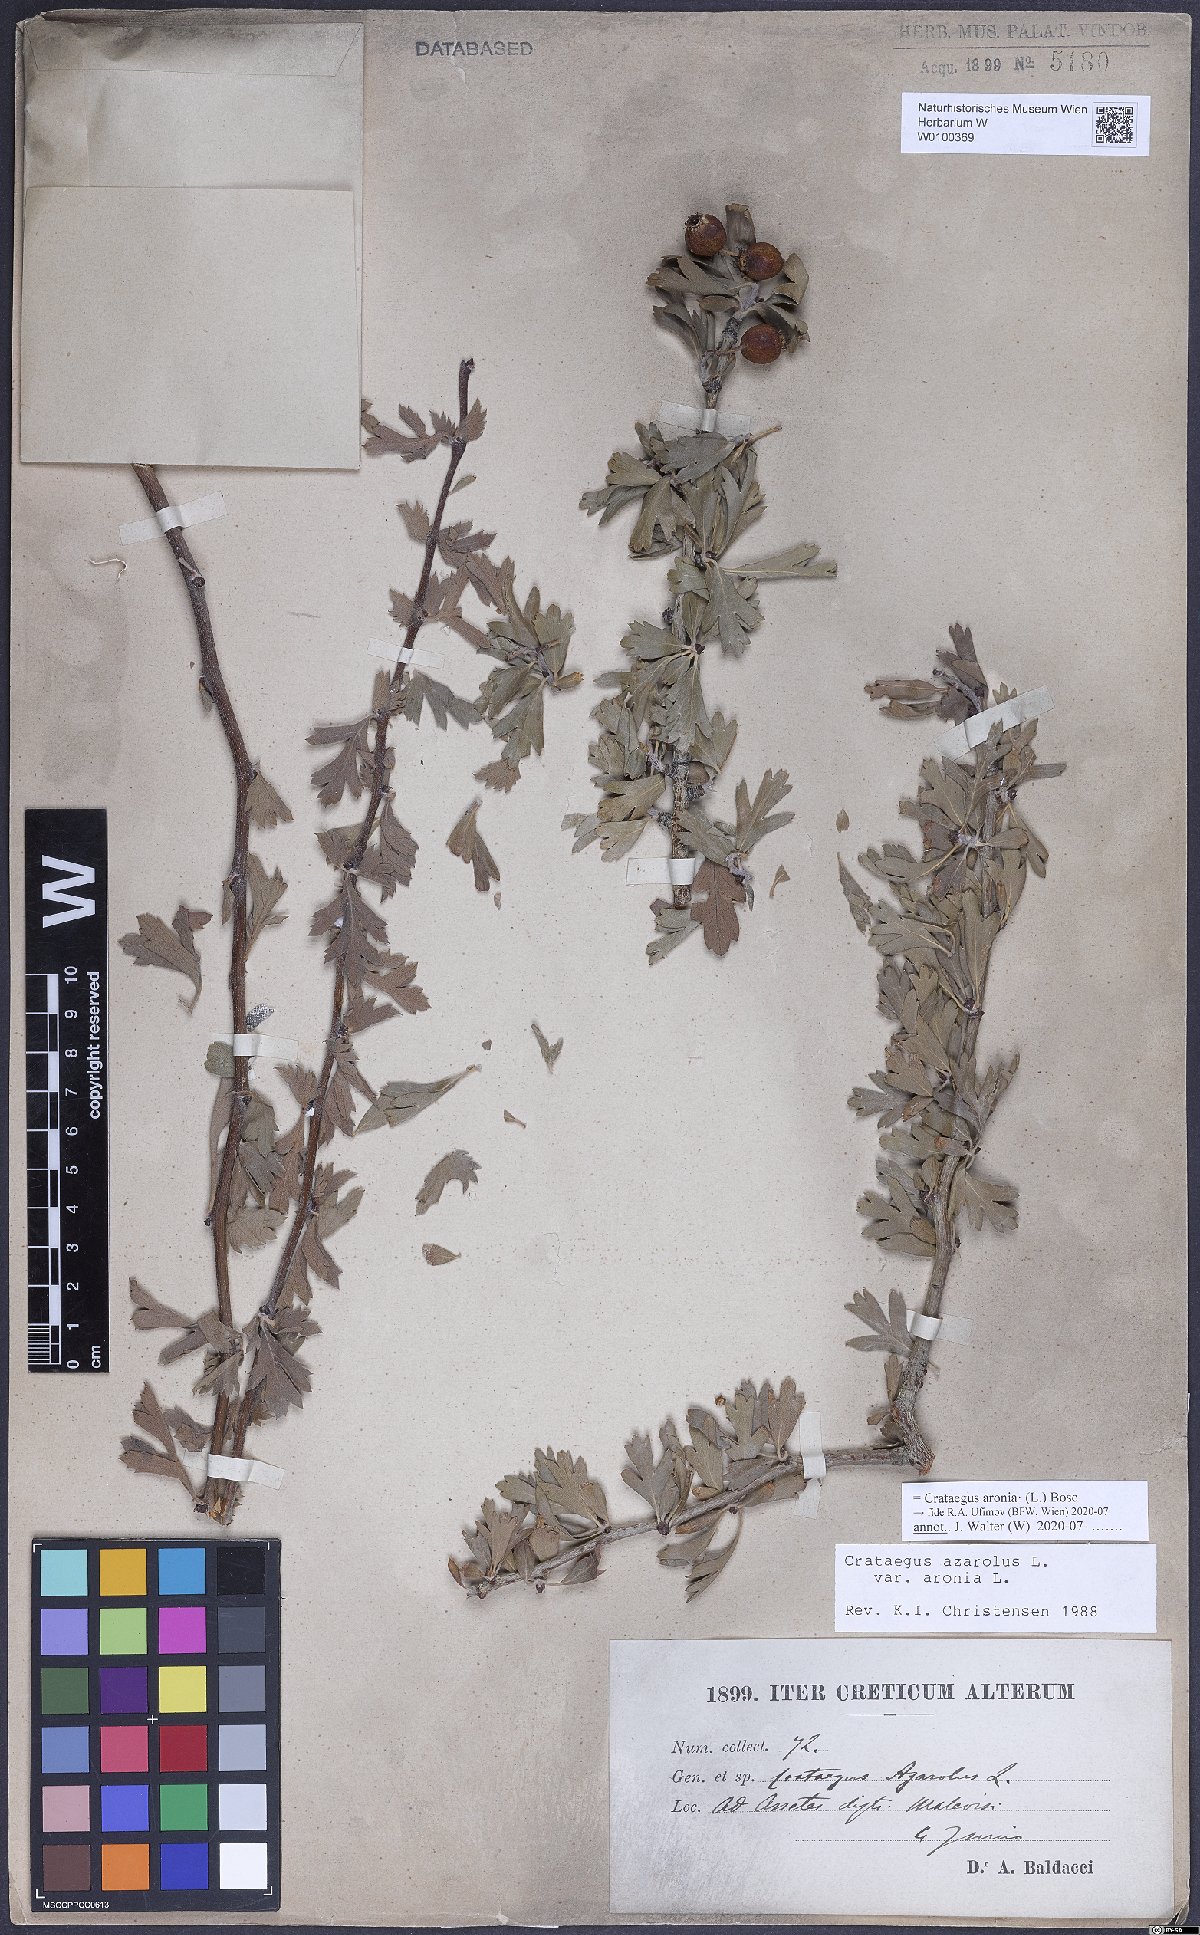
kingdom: Plantae
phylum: Tracheophyta
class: Magnoliopsida
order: Rosales
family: Rosaceae
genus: Crataegus
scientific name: Crataegus azarolus
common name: Azarole
